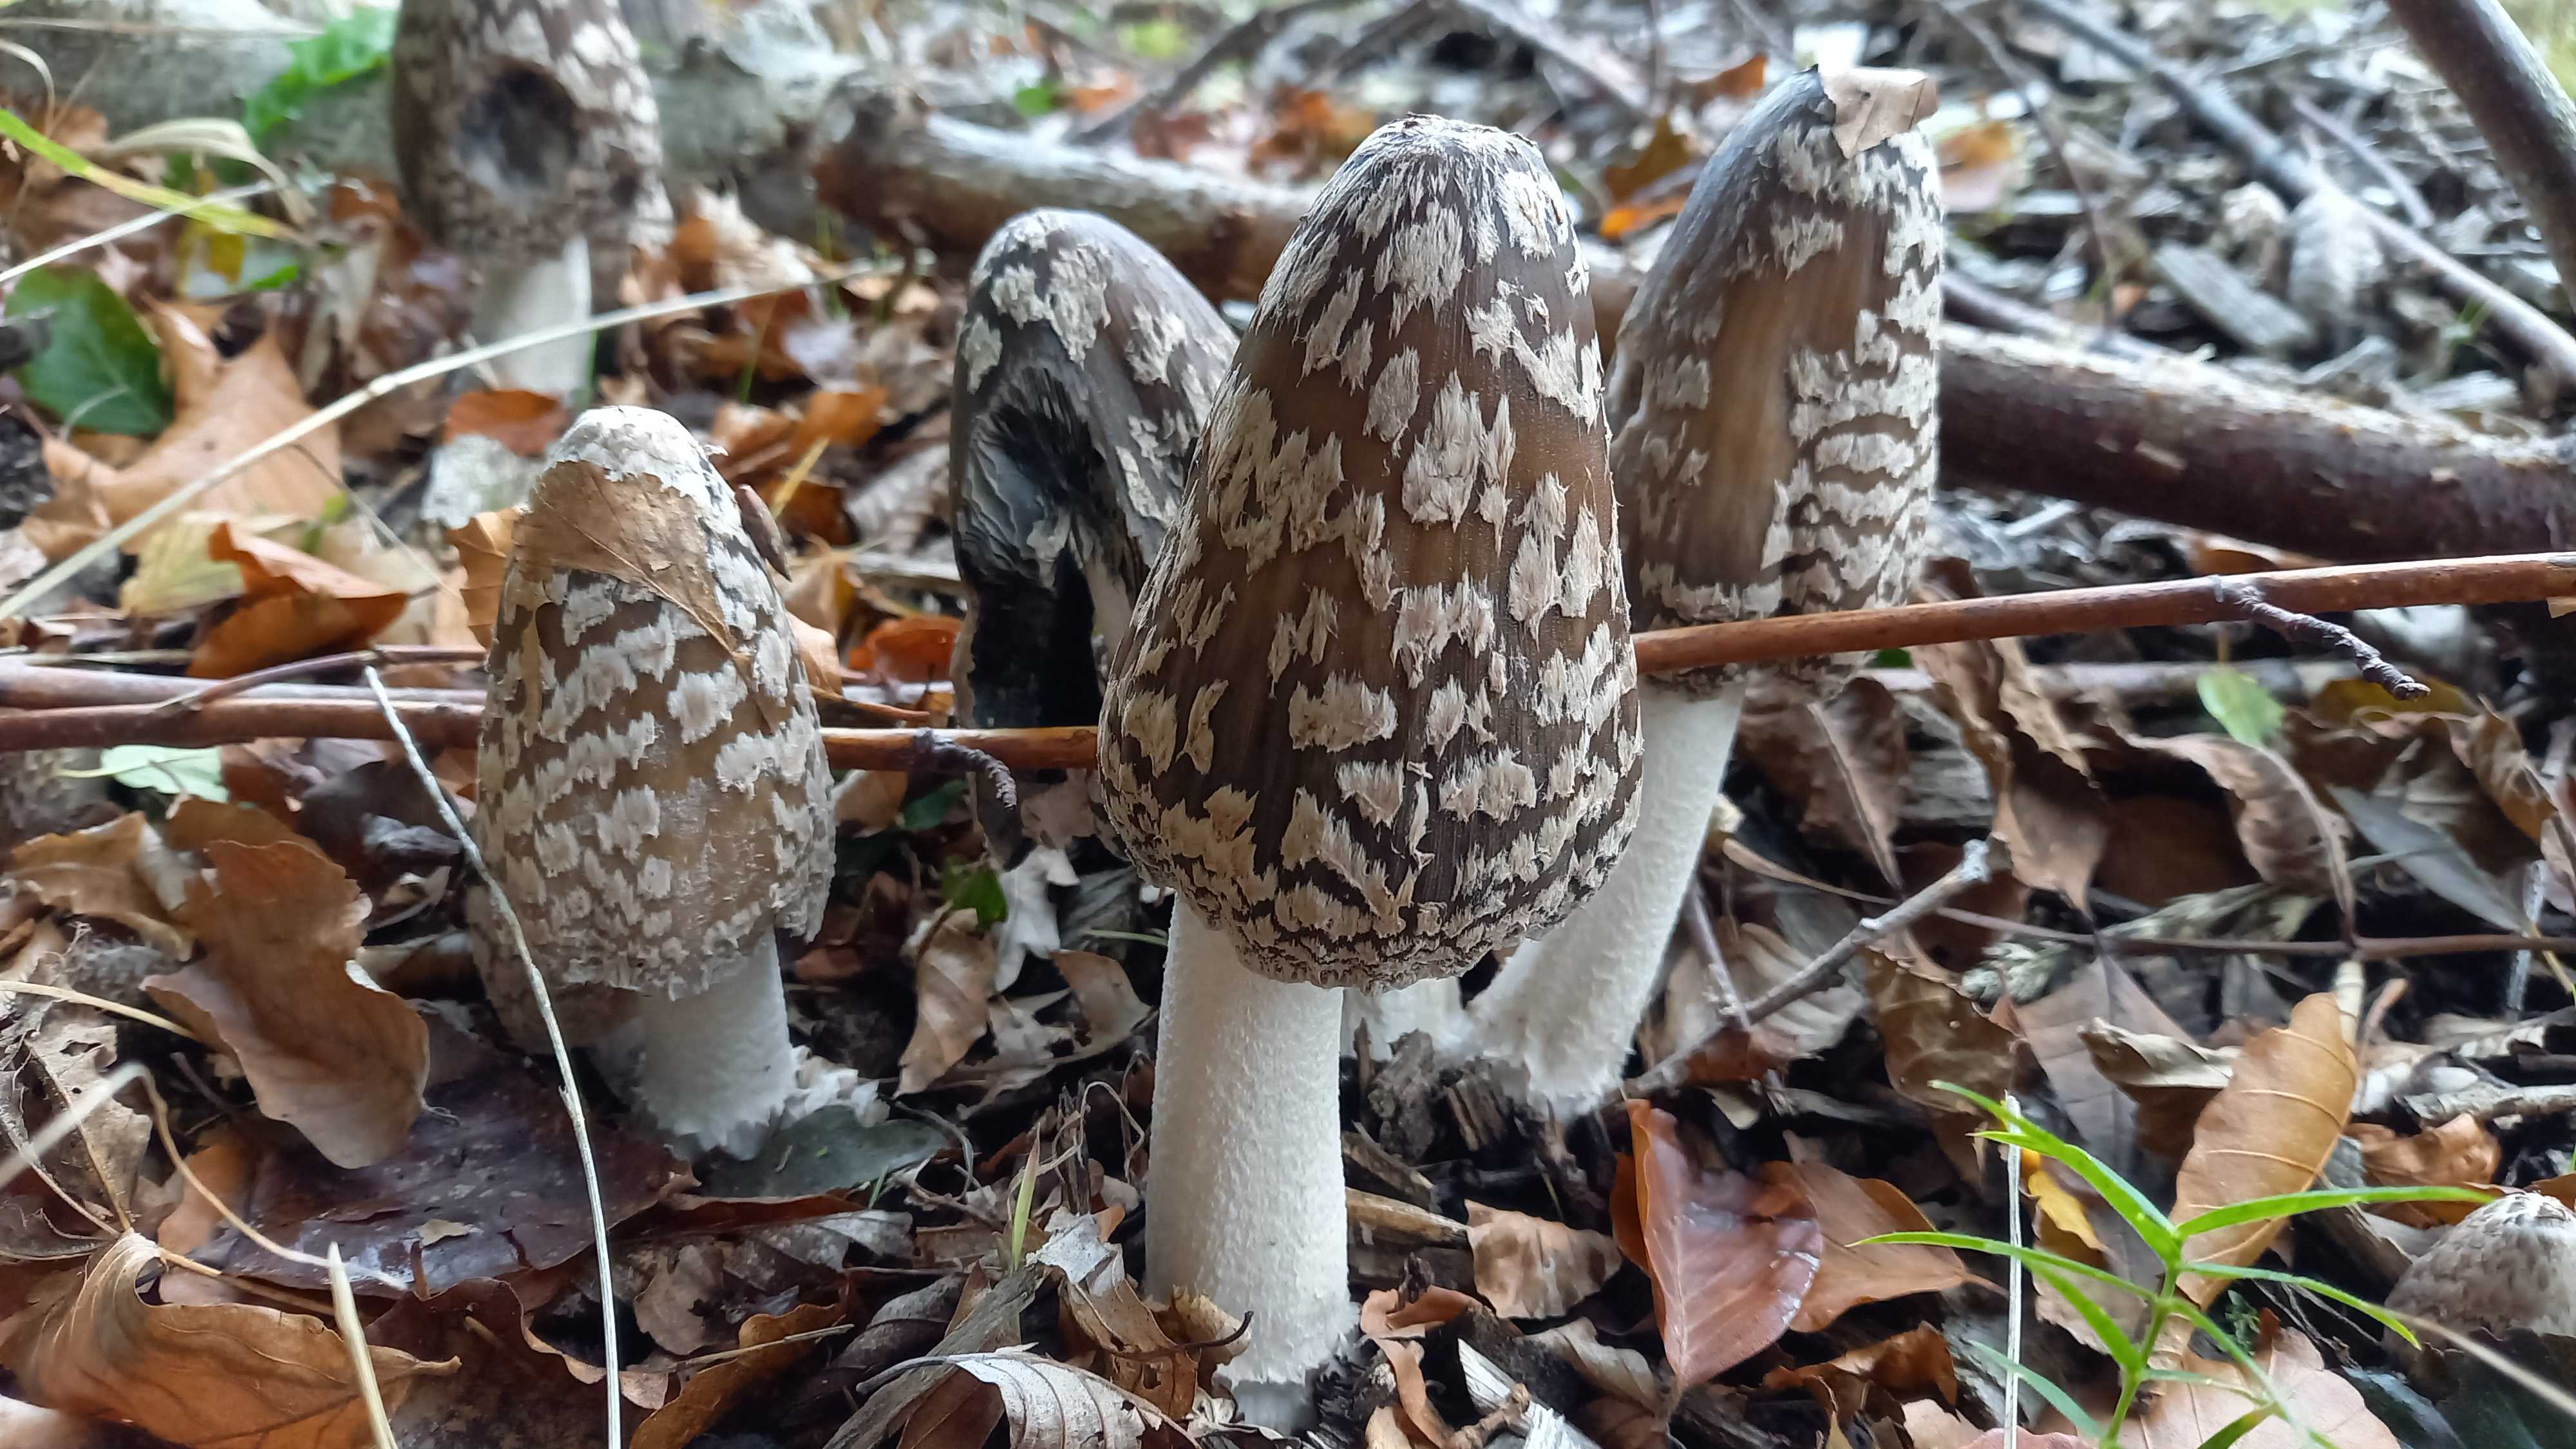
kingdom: Fungi
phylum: Basidiomycota
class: Agaricomycetes
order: Agaricales
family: Psathyrellaceae
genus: Coprinopsis
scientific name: Coprinopsis picacea
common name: skade-blækhat
